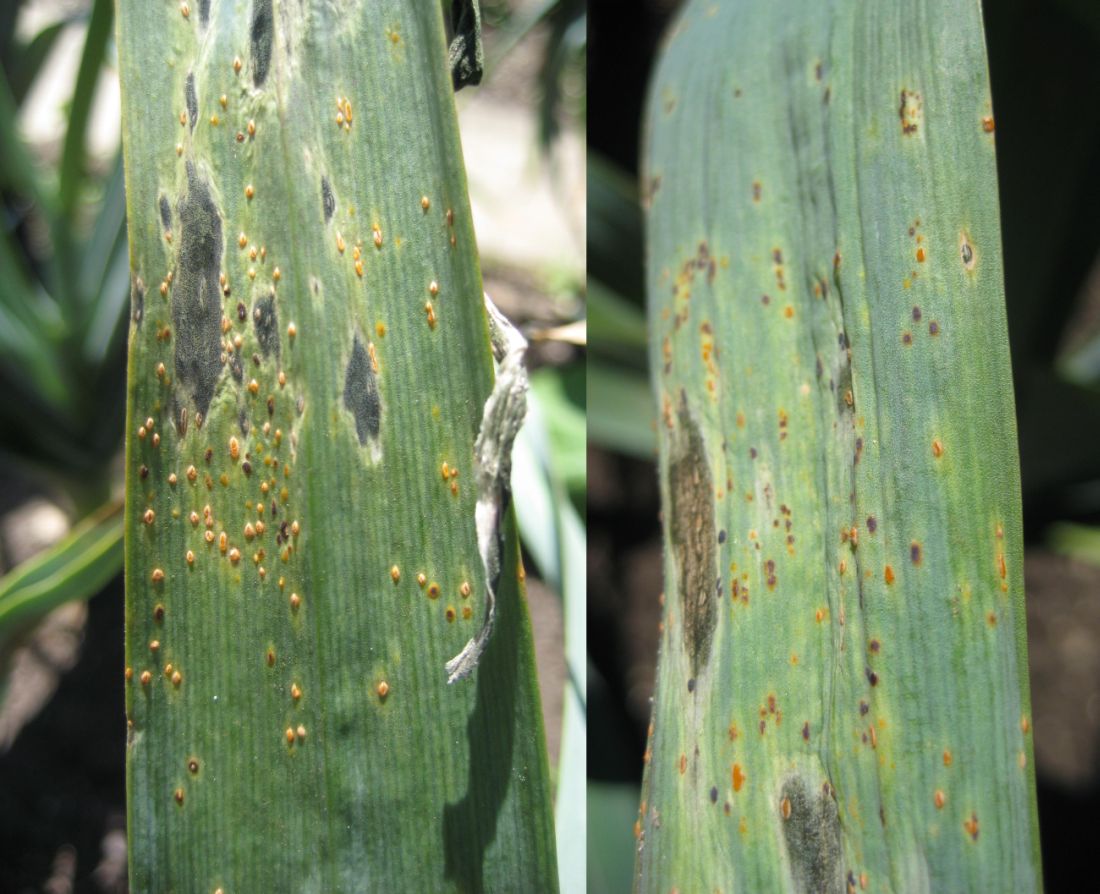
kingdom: Fungi
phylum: Basidiomycota
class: Pucciniomycetes
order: Pucciniales
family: Pucciniaceae
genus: Puccinia
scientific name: Puccinia porri
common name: Allium rust
